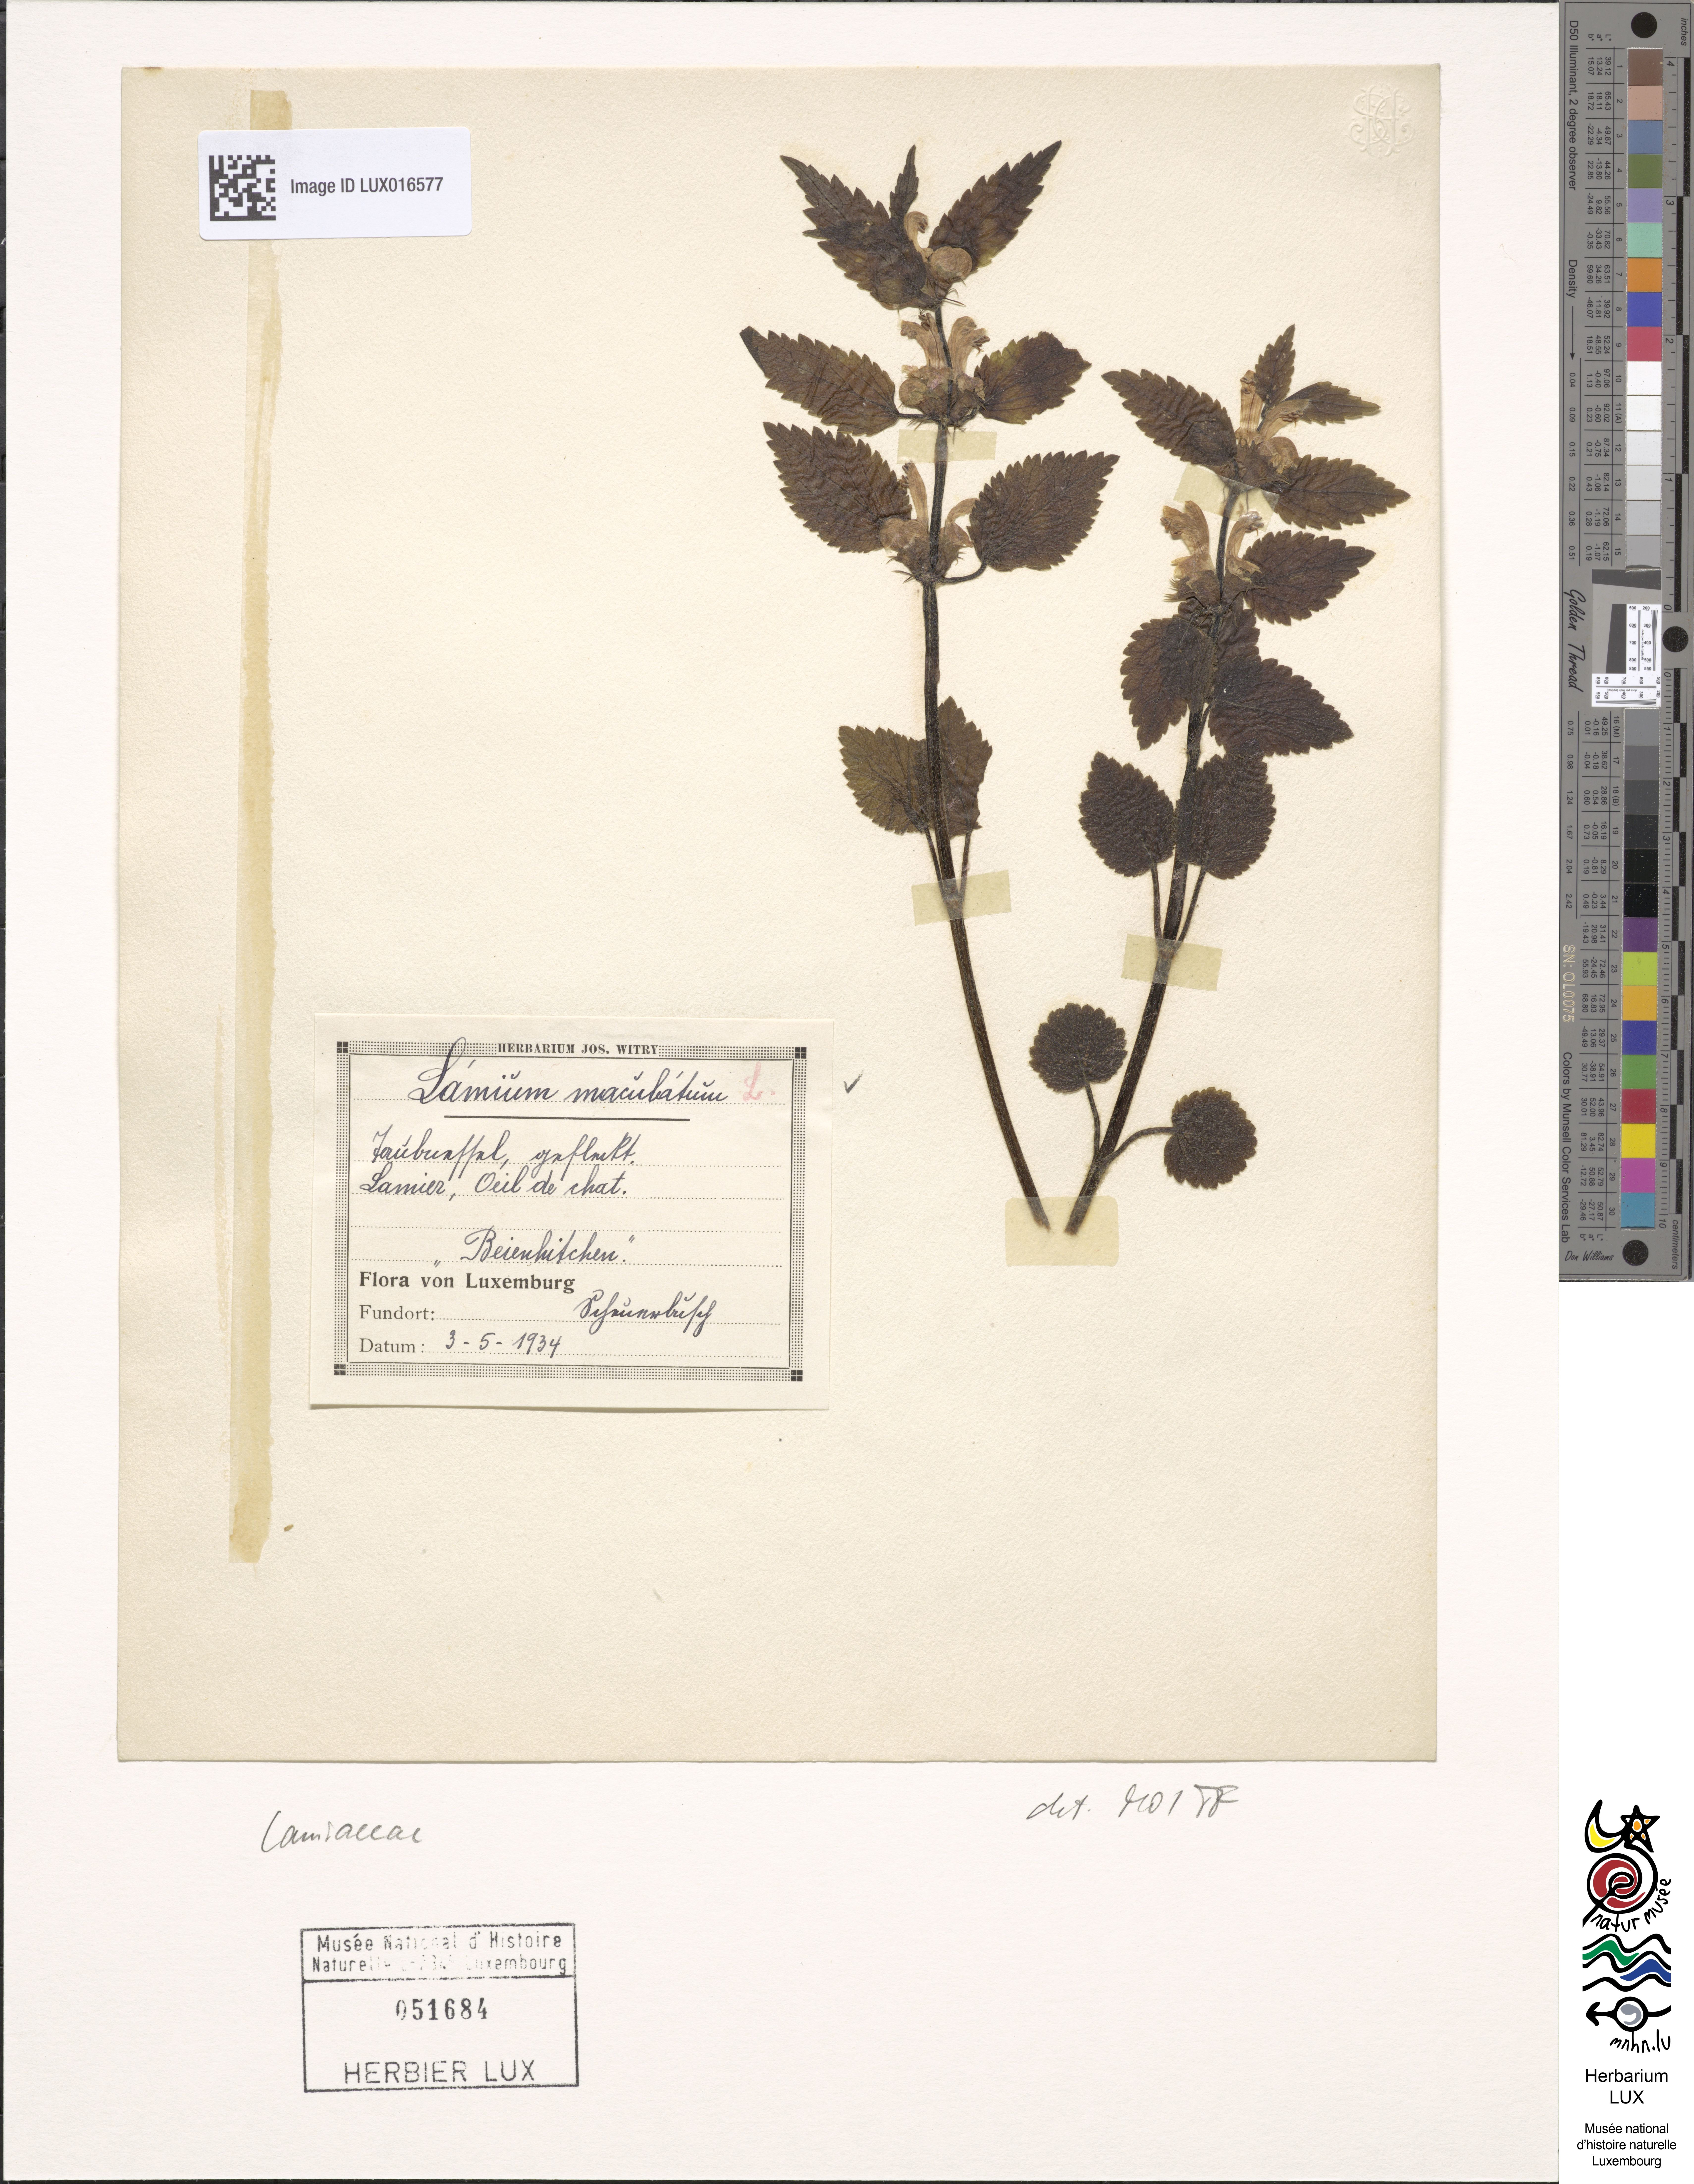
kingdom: Plantae
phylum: Tracheophyta
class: Magnoliopsida
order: Lamiales
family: Lamiaceae
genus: Lamium
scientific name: Lamium maculatum
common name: Spotted dead-nettle
